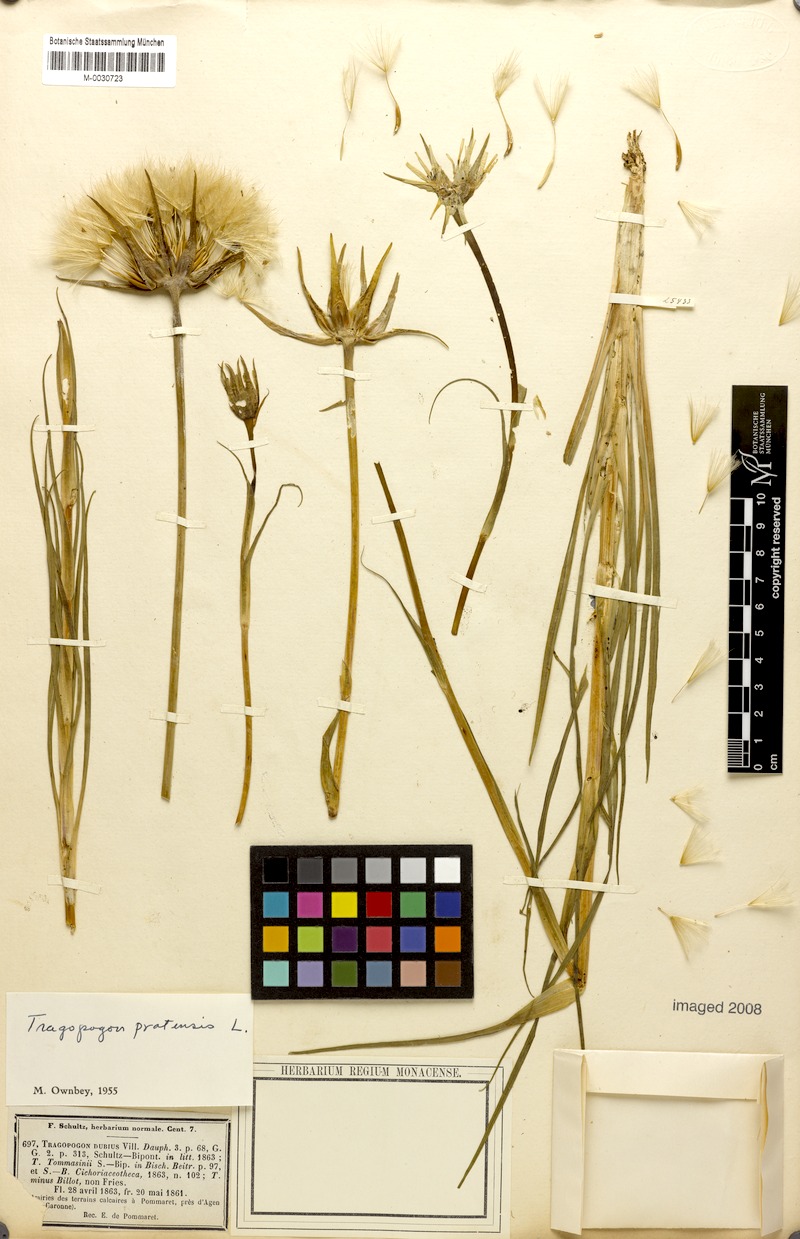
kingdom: Plantae
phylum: Tracheophyta
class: Magnoliopsida
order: Asterales
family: Asteraceae
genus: Tragopogon
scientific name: Tragopogon pratensis
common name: Goat's-beard
